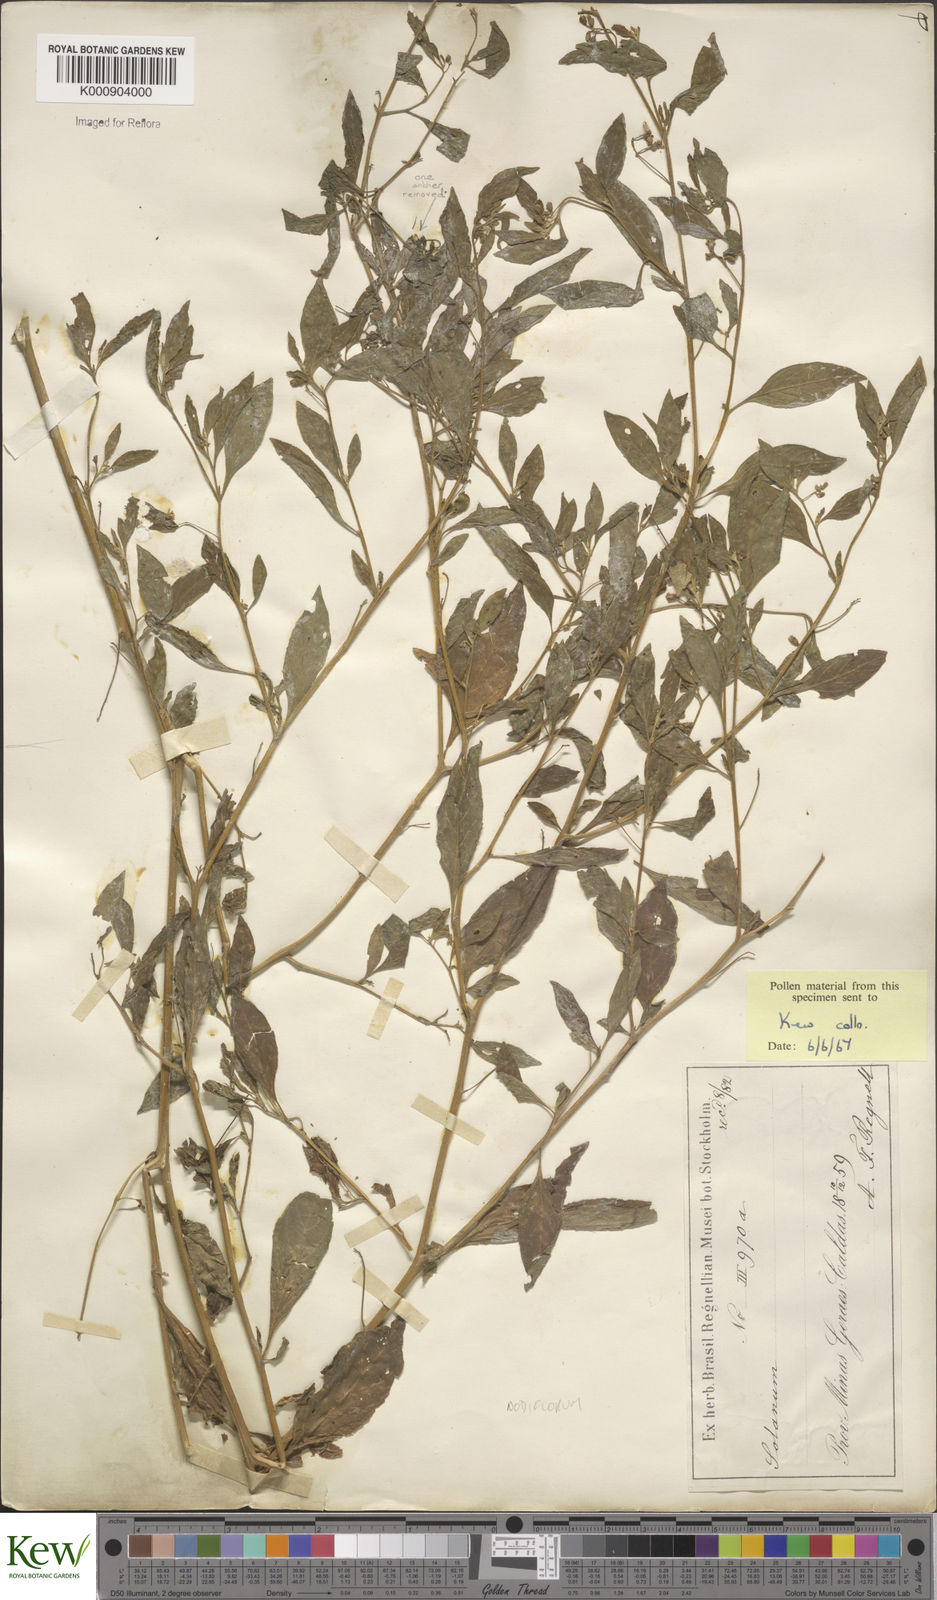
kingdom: Plantae
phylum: Tracheophyta
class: Magnoliopsida
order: Solanales
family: Solanaceae
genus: Solanum
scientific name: Solanum paucidens
